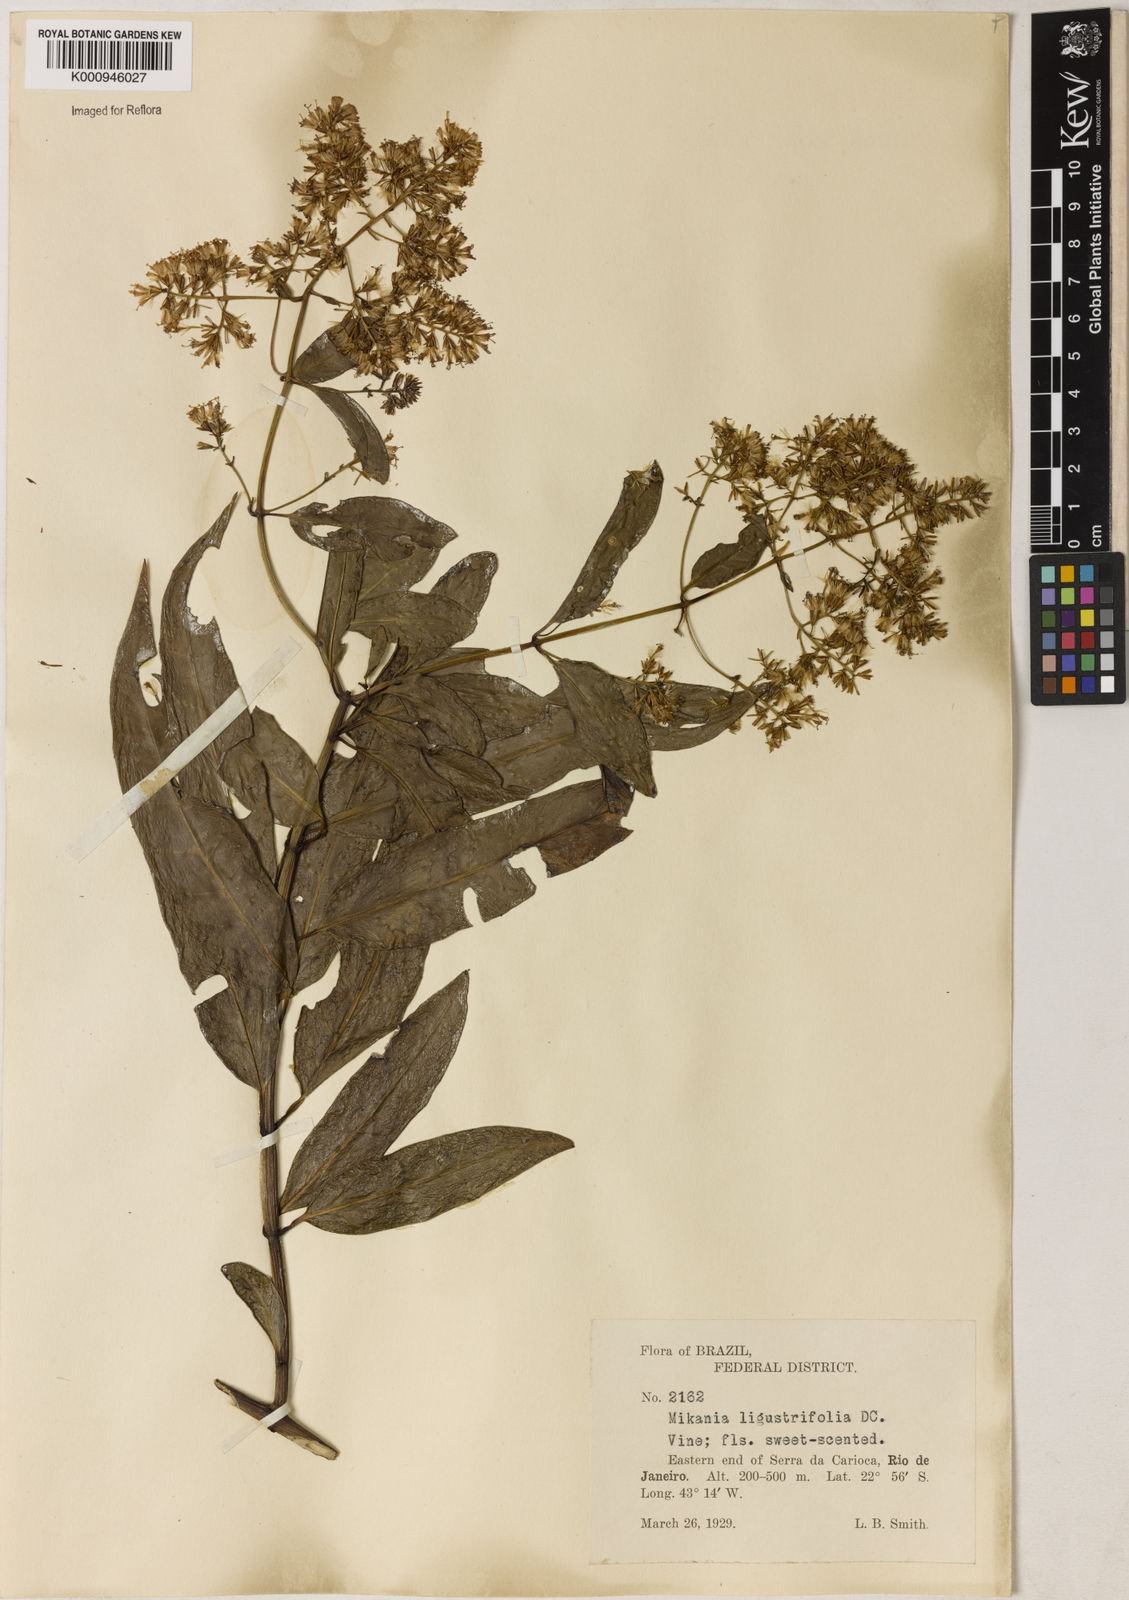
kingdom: Plantae
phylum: Tracheophyta
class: Magnoliopsida
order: Asterales
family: Asteraceae
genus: Mikania
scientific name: Mikania ligustrifolia
